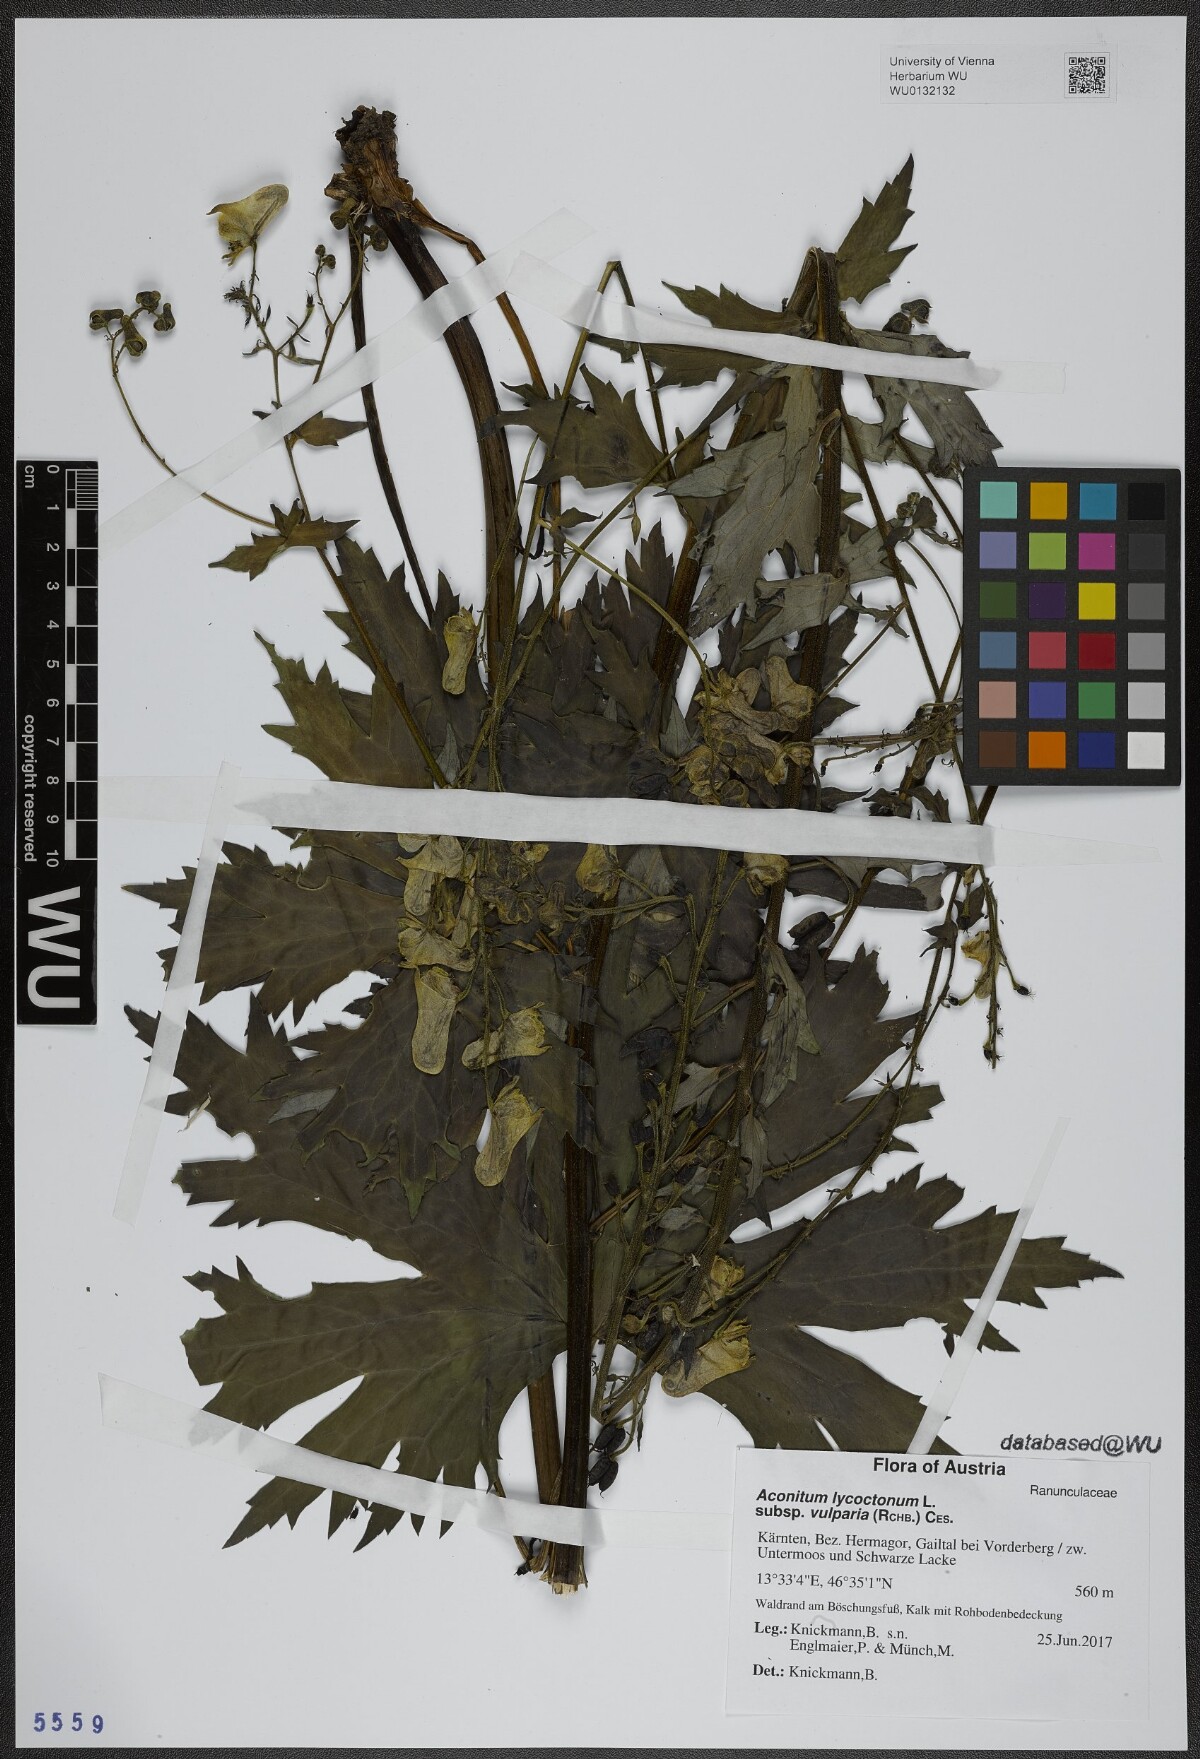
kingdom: Plantae
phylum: Tracheophyta
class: Magnoliopsida
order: Ranunculales
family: Ranunculaceae
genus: Aconitum
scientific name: Aconitum lycoctonum
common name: Wolf's-bane
